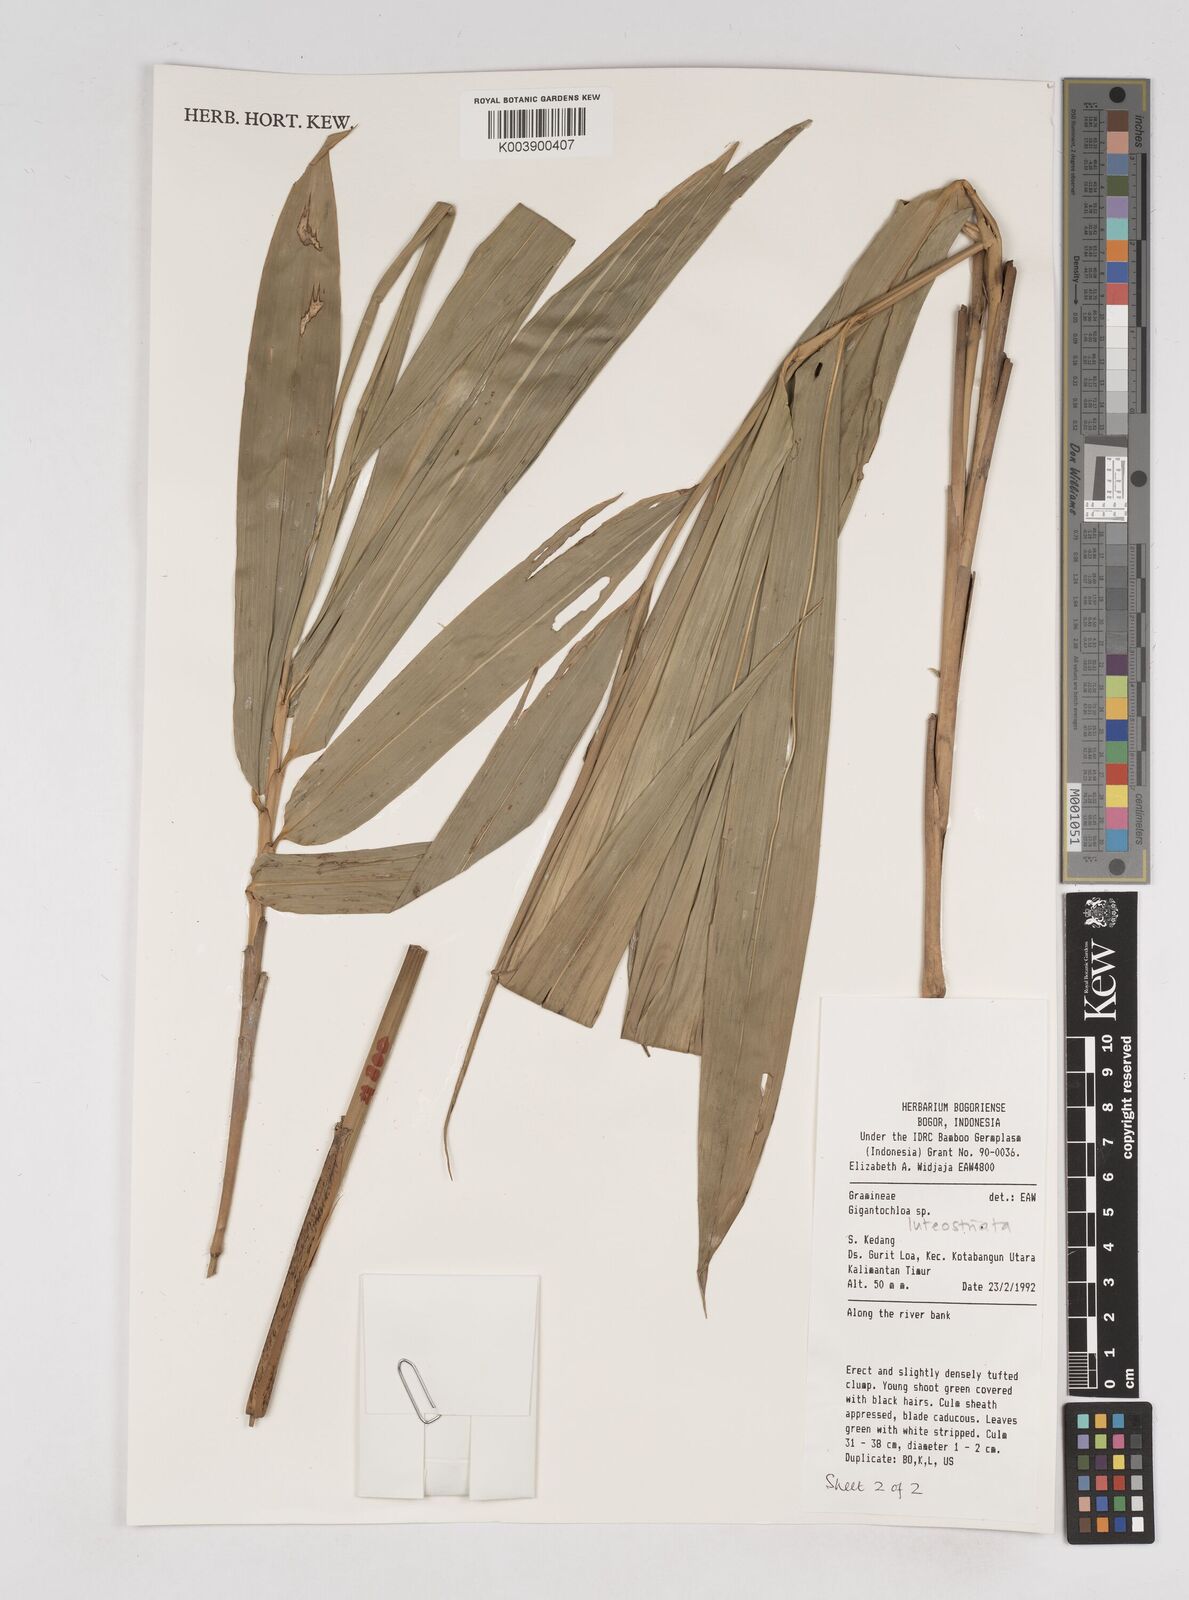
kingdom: Plantae
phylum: Tracheophyta
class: Liliopsida
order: Poales
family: Poaceae
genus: Gigantochloa
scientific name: Gigantochloa luteostriata
